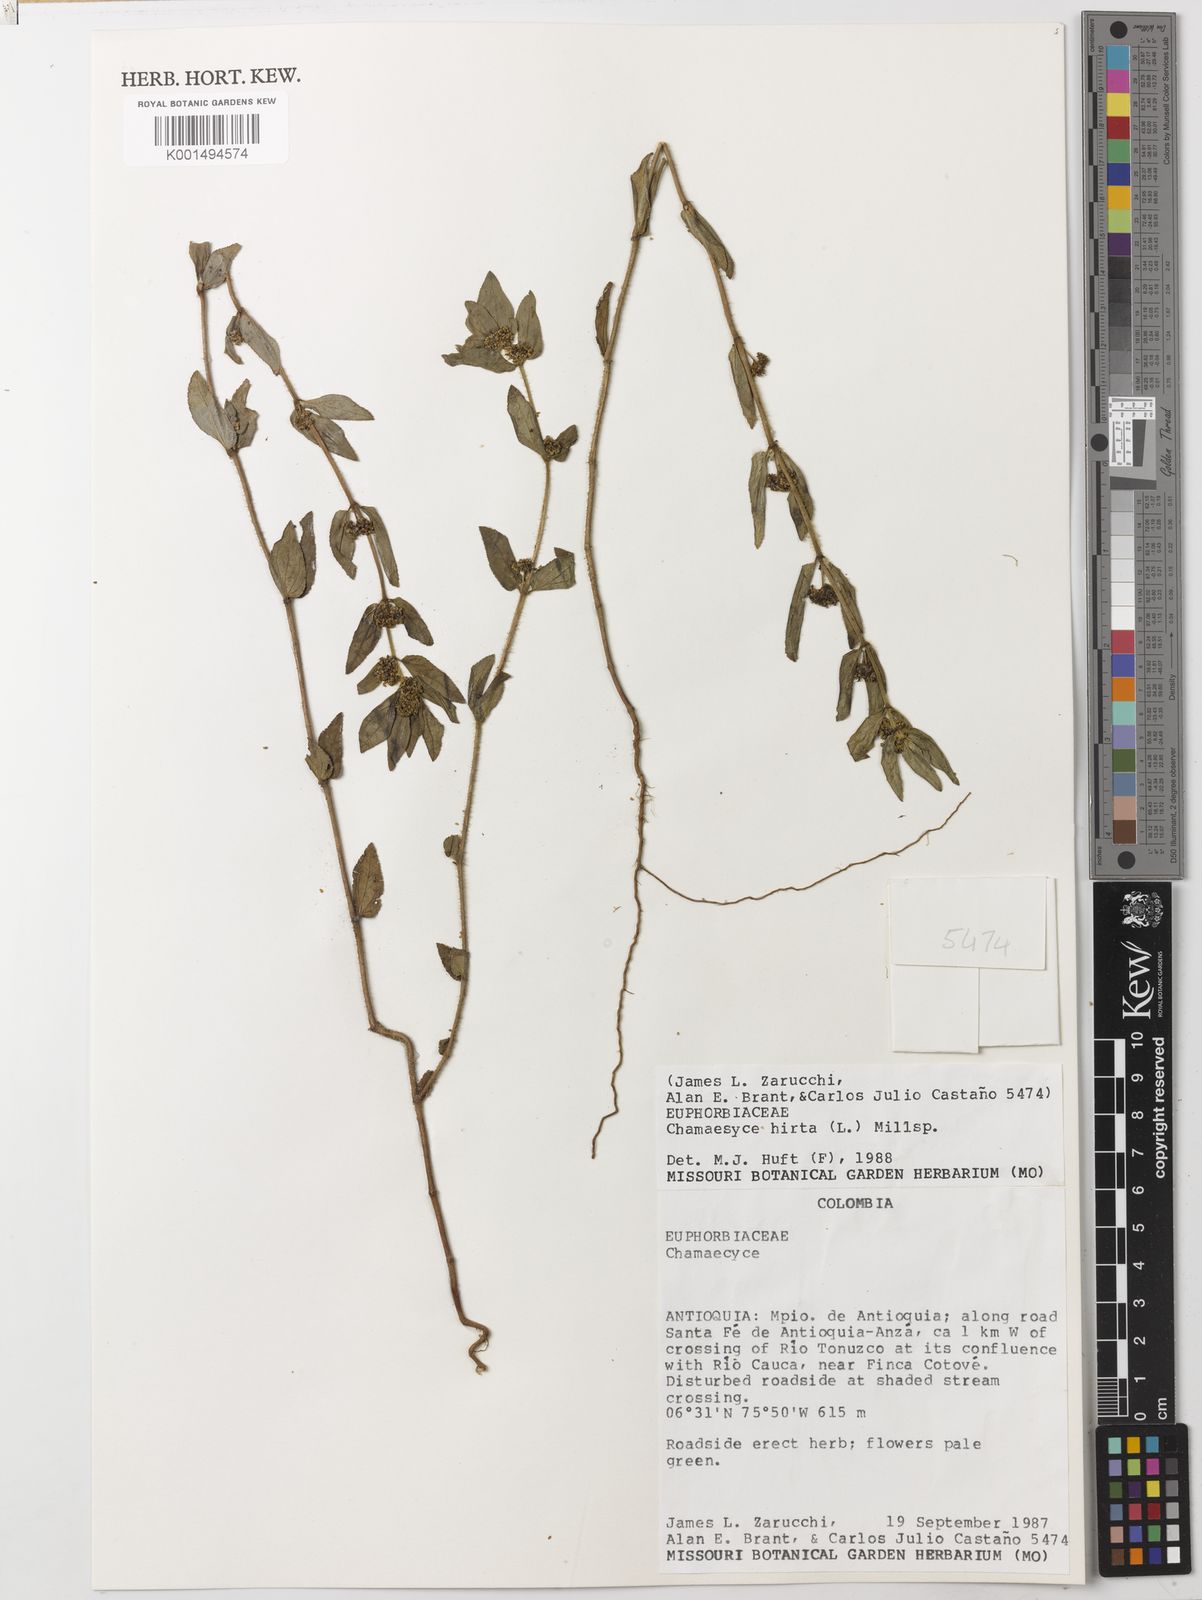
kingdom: Plantae
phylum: Tracheophyta
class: Magnoliopsida
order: Malpighiales
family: Euphorbiaceae
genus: Euphorbia
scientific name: Euphorbia hirta
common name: Pillpod sandmat
